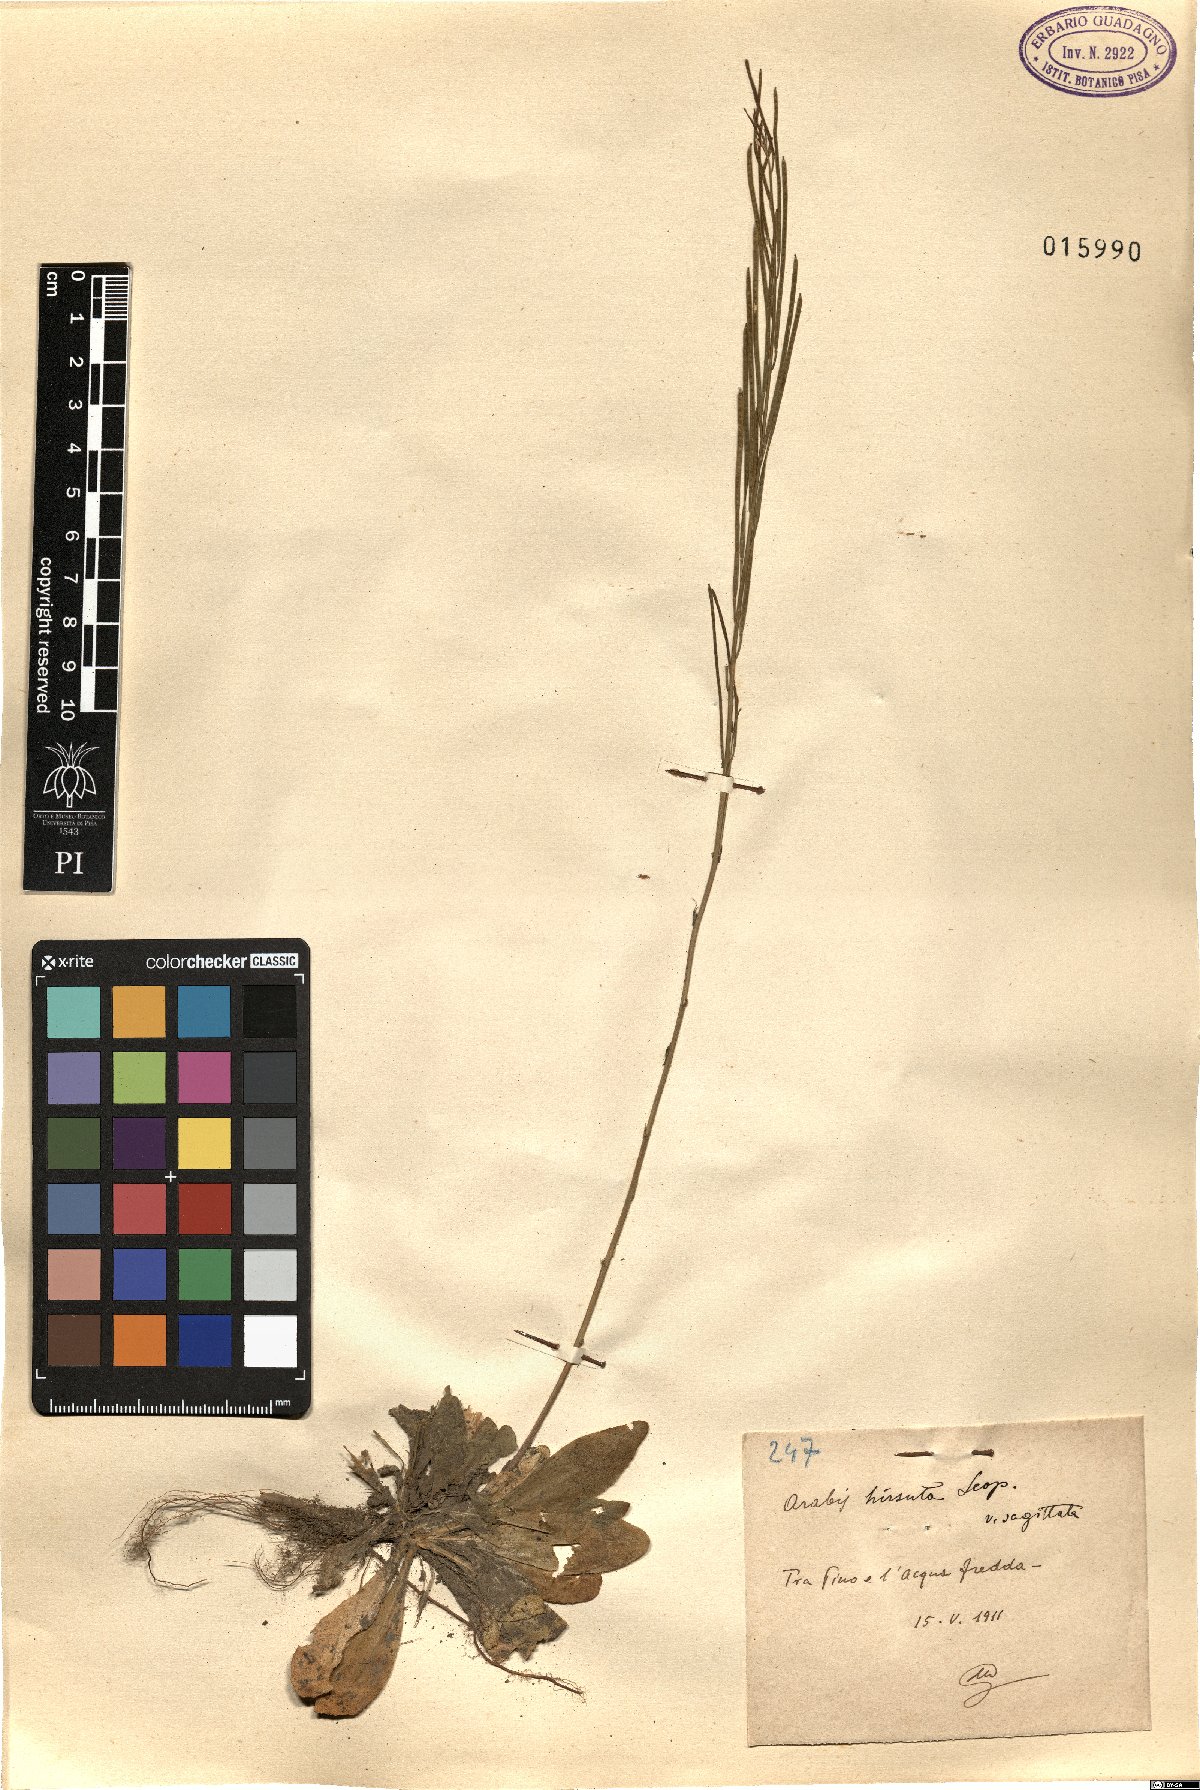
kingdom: Plantae
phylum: Tracheophyta
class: Magnoliopsida
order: Brassicales
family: Brassicaceae
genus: Arabis
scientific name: Arabis sagittata
